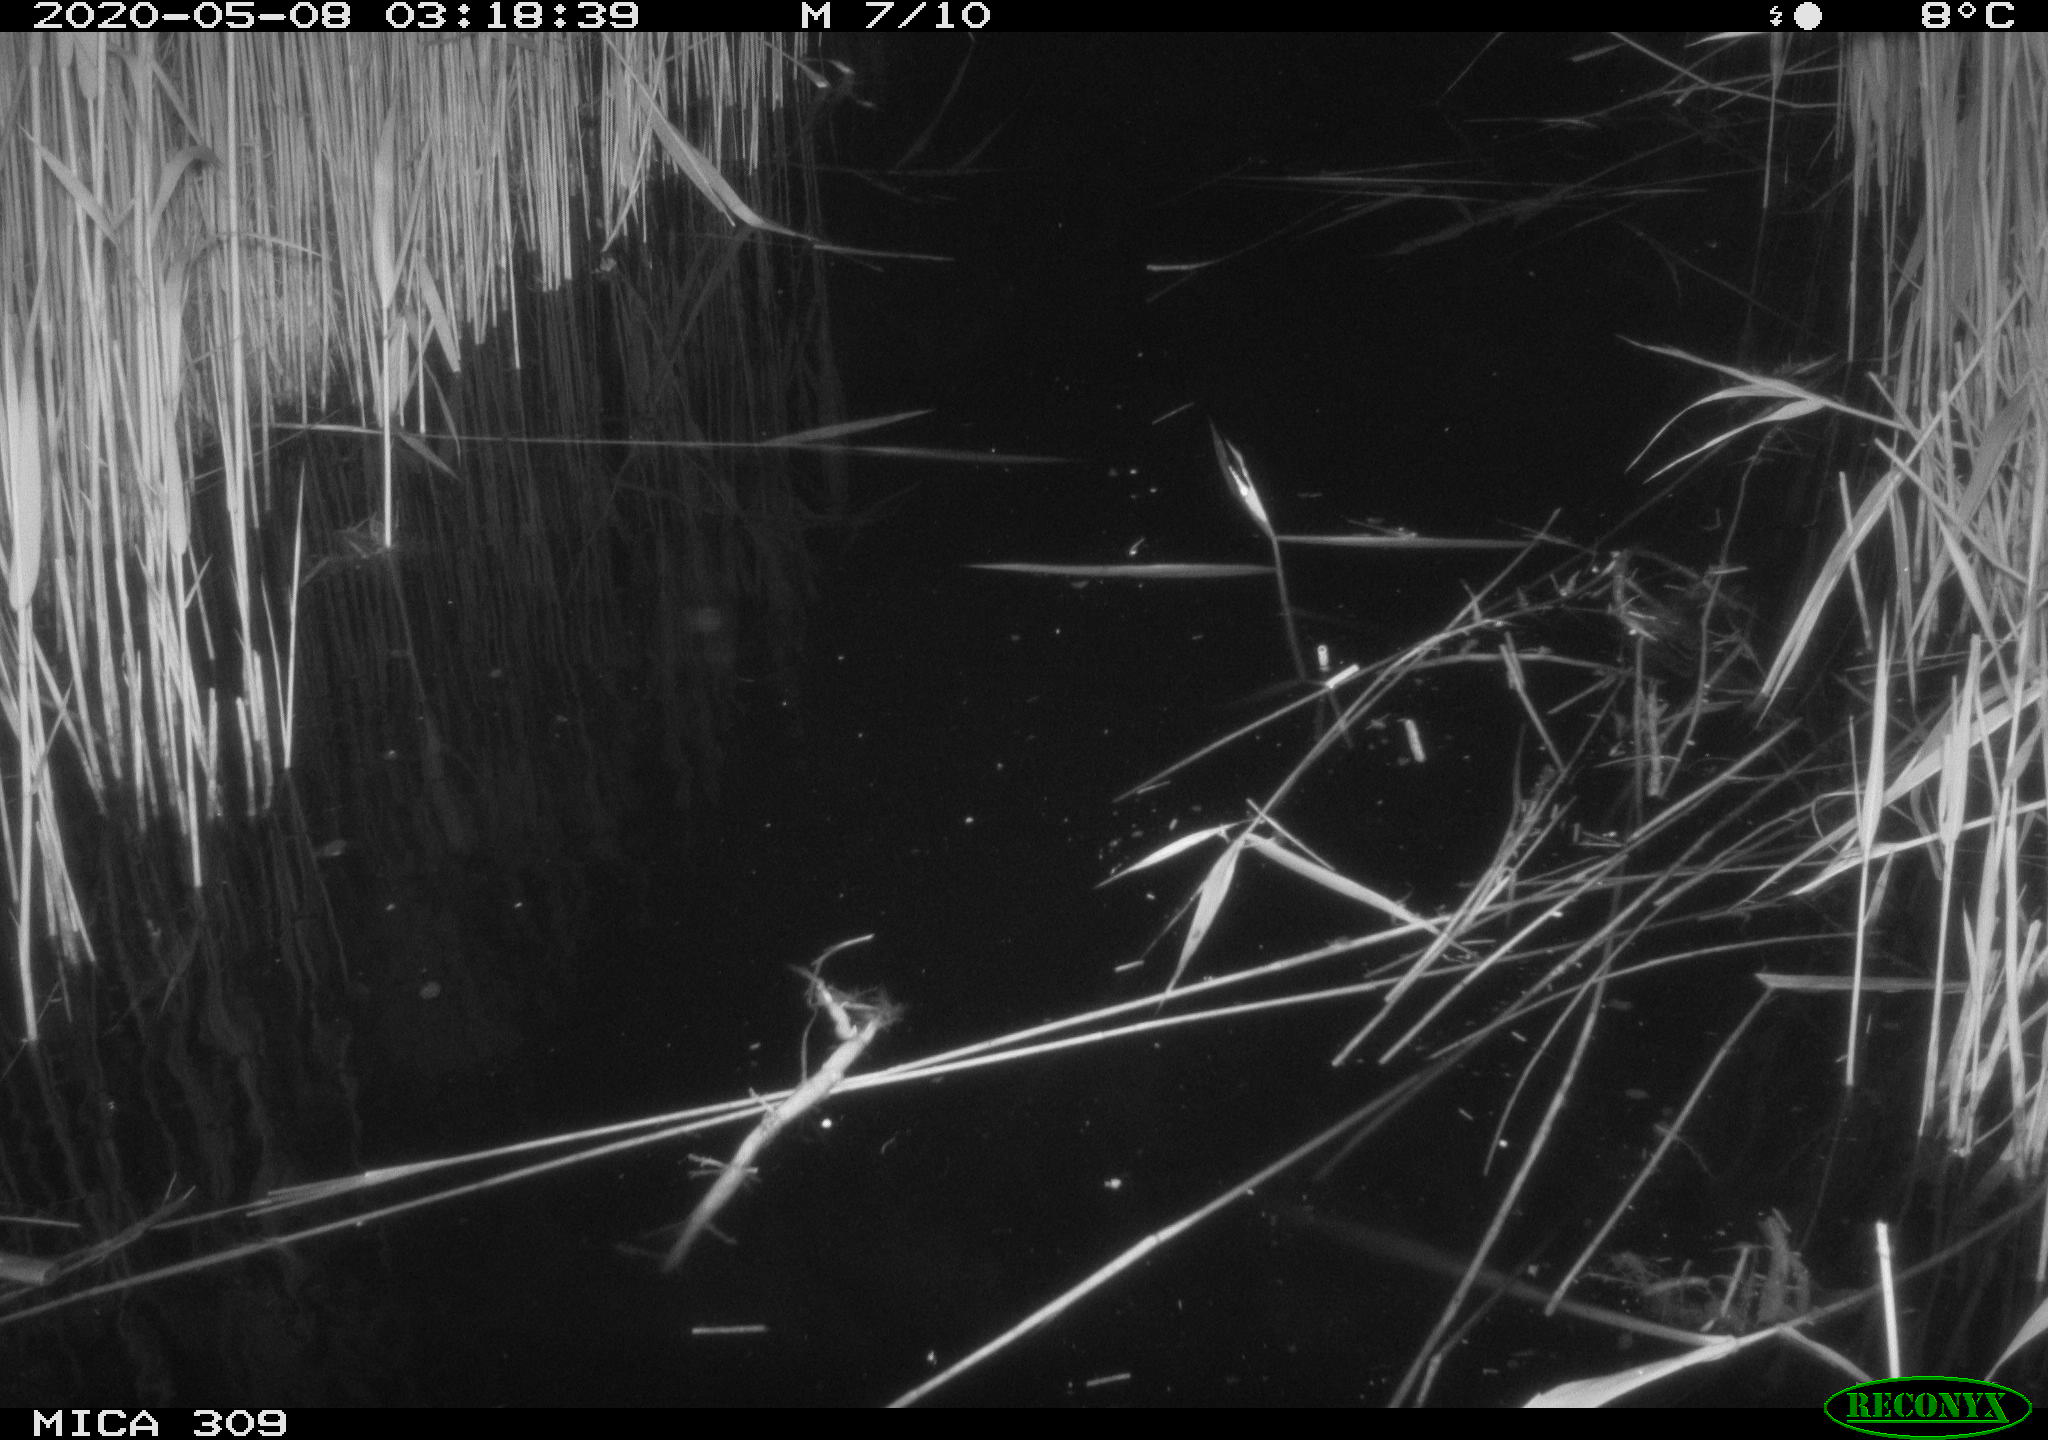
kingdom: Animalia
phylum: Chordata
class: Aves
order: Anseriformes
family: Anatidae
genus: Anas
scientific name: Anas platyrhynchos
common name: Mallard
